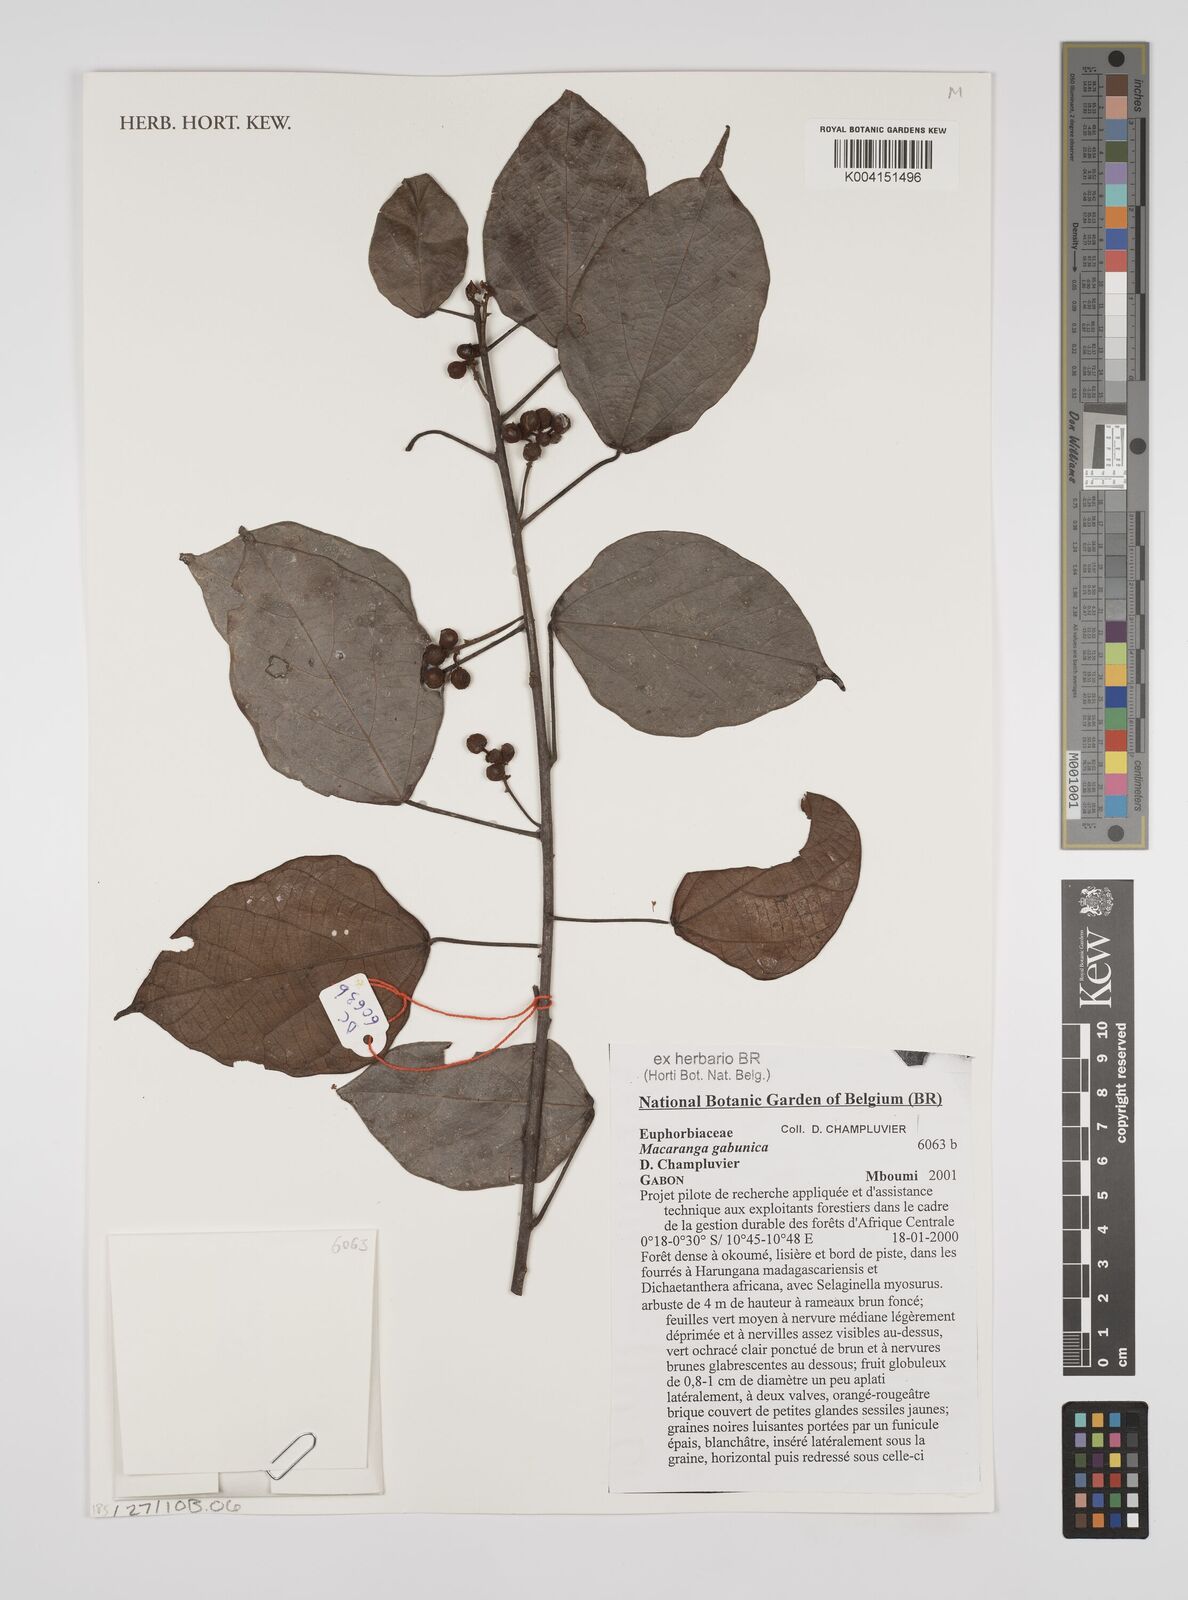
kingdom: Plantae
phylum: Tracheophyta
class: Magnoliopsida
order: Malpighiales
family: Euphorbiaceae
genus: Macaranga
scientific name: Macaranga gabunica
